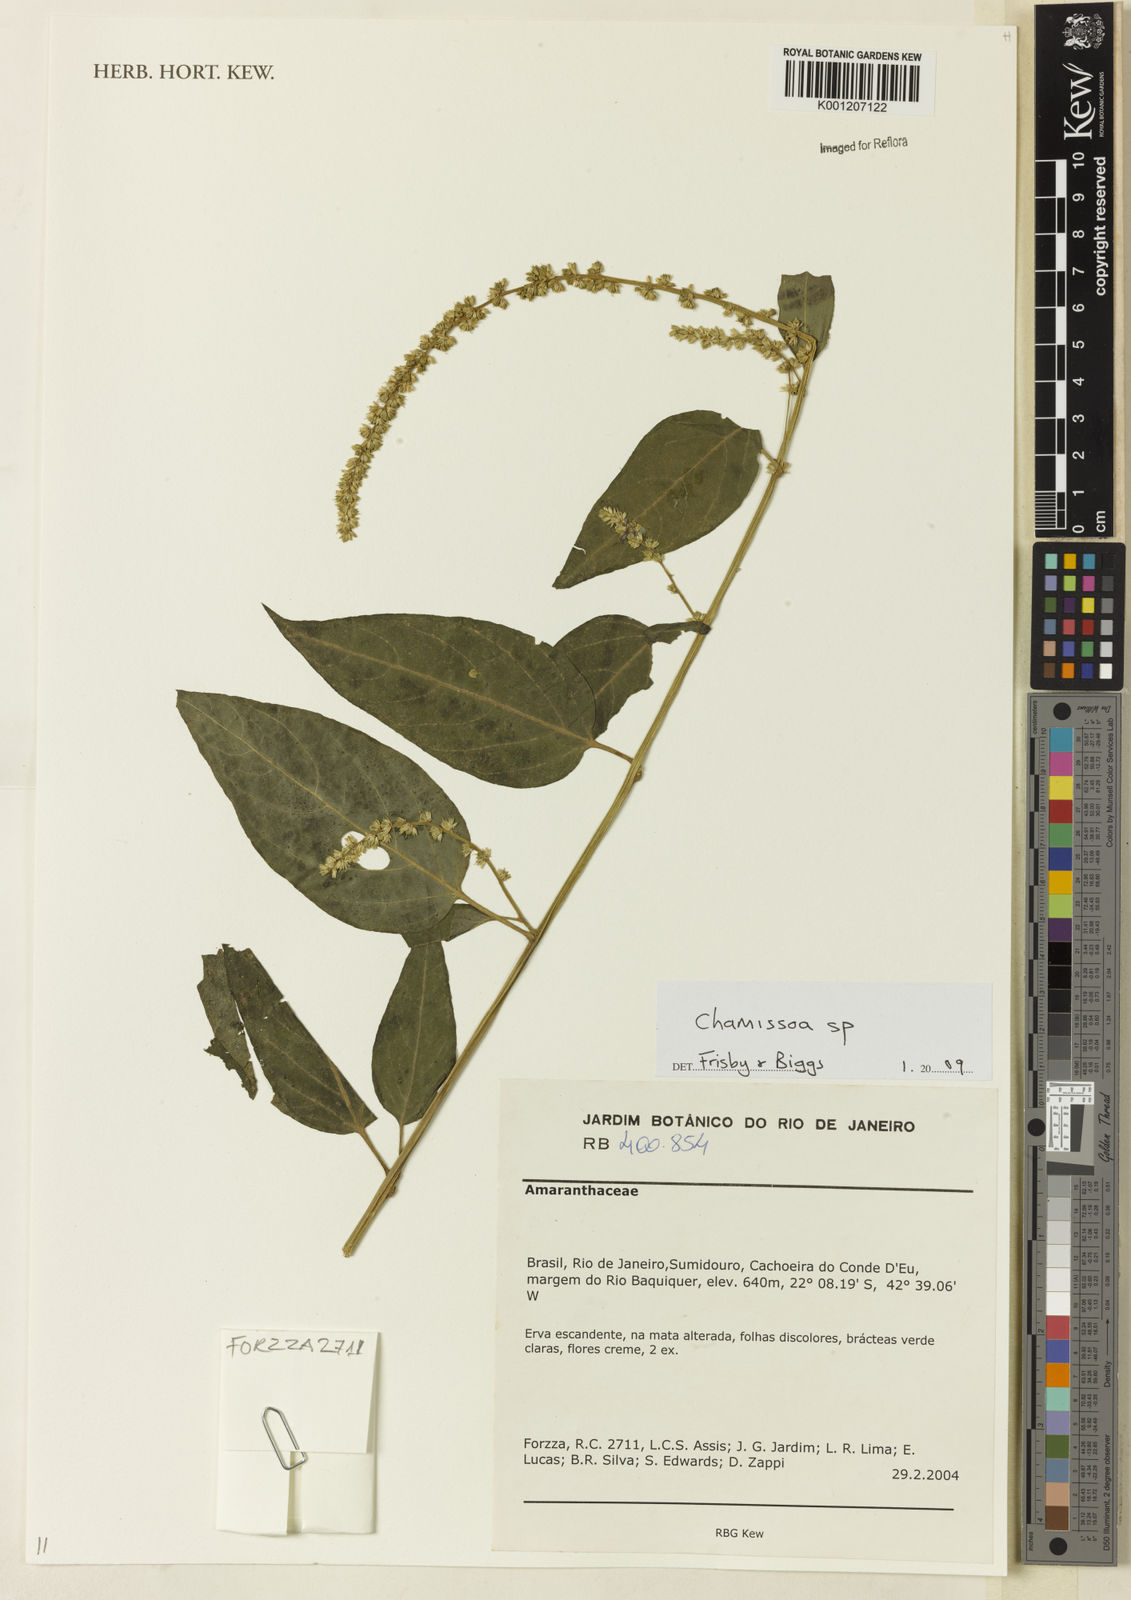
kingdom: Plantae
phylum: Tracheophyta
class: Magnoliopsida
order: Caryophyllales
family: Amaranthaceae
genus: Chamissoa
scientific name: Chamissoa
